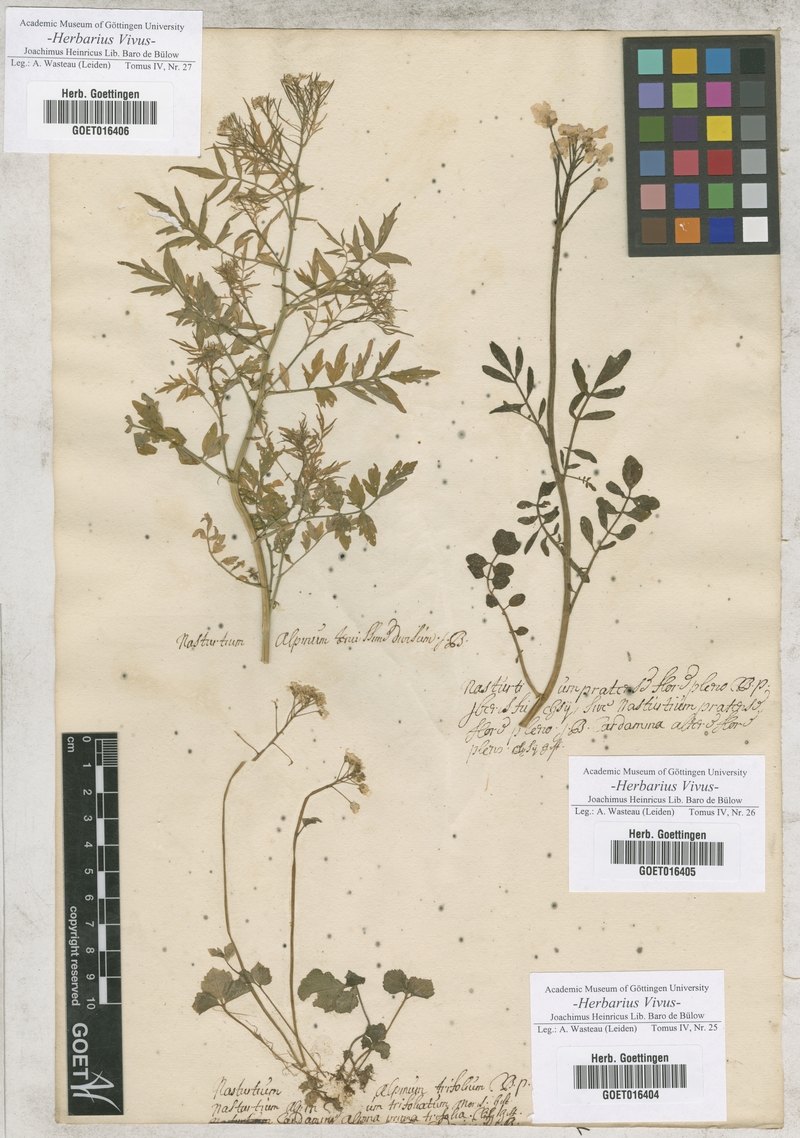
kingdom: Plantae
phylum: Tracheophyta
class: Magnoliopsida
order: Brassicales
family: Brassicaceae
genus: Cardamine
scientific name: Cardamine trifolia
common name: Trefoil cress
